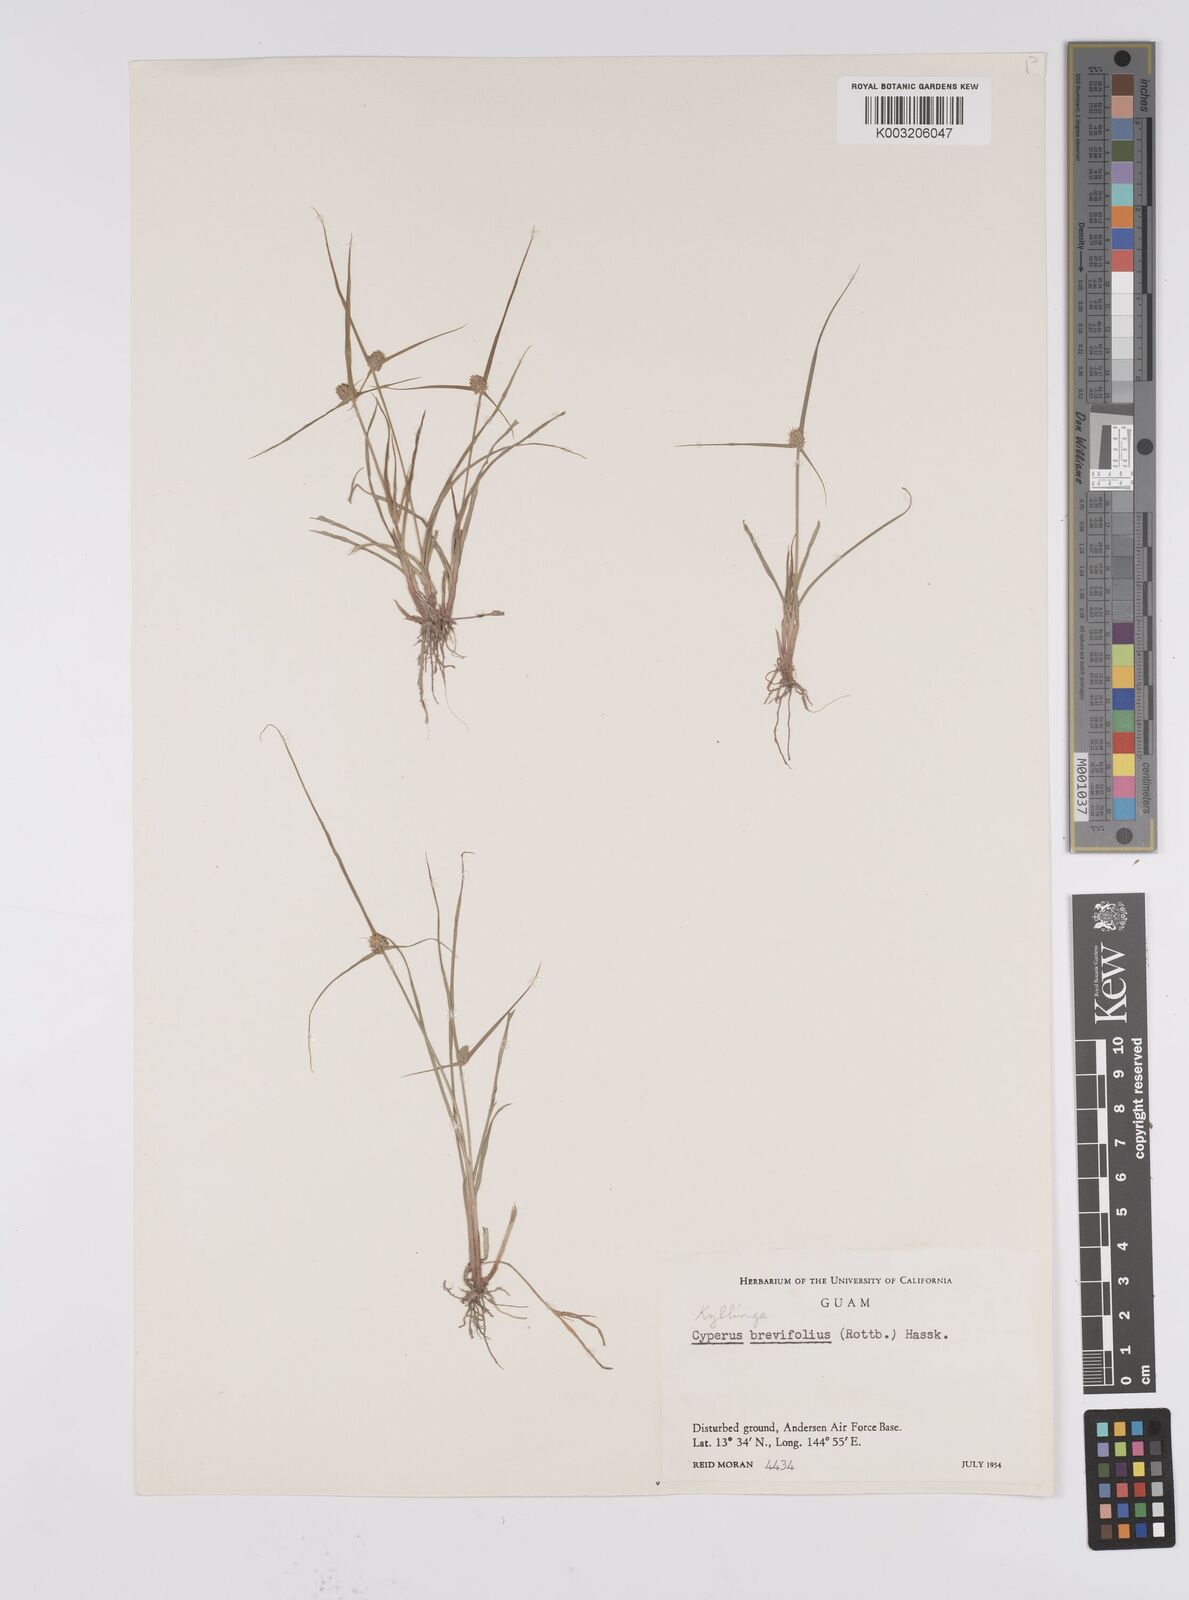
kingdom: Plantae
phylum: Tracheophyta
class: Liliopsida
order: Poales
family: Cyperaceae
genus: Cyperus
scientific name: Cyperus brevifolius
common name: Globe kyllinga
